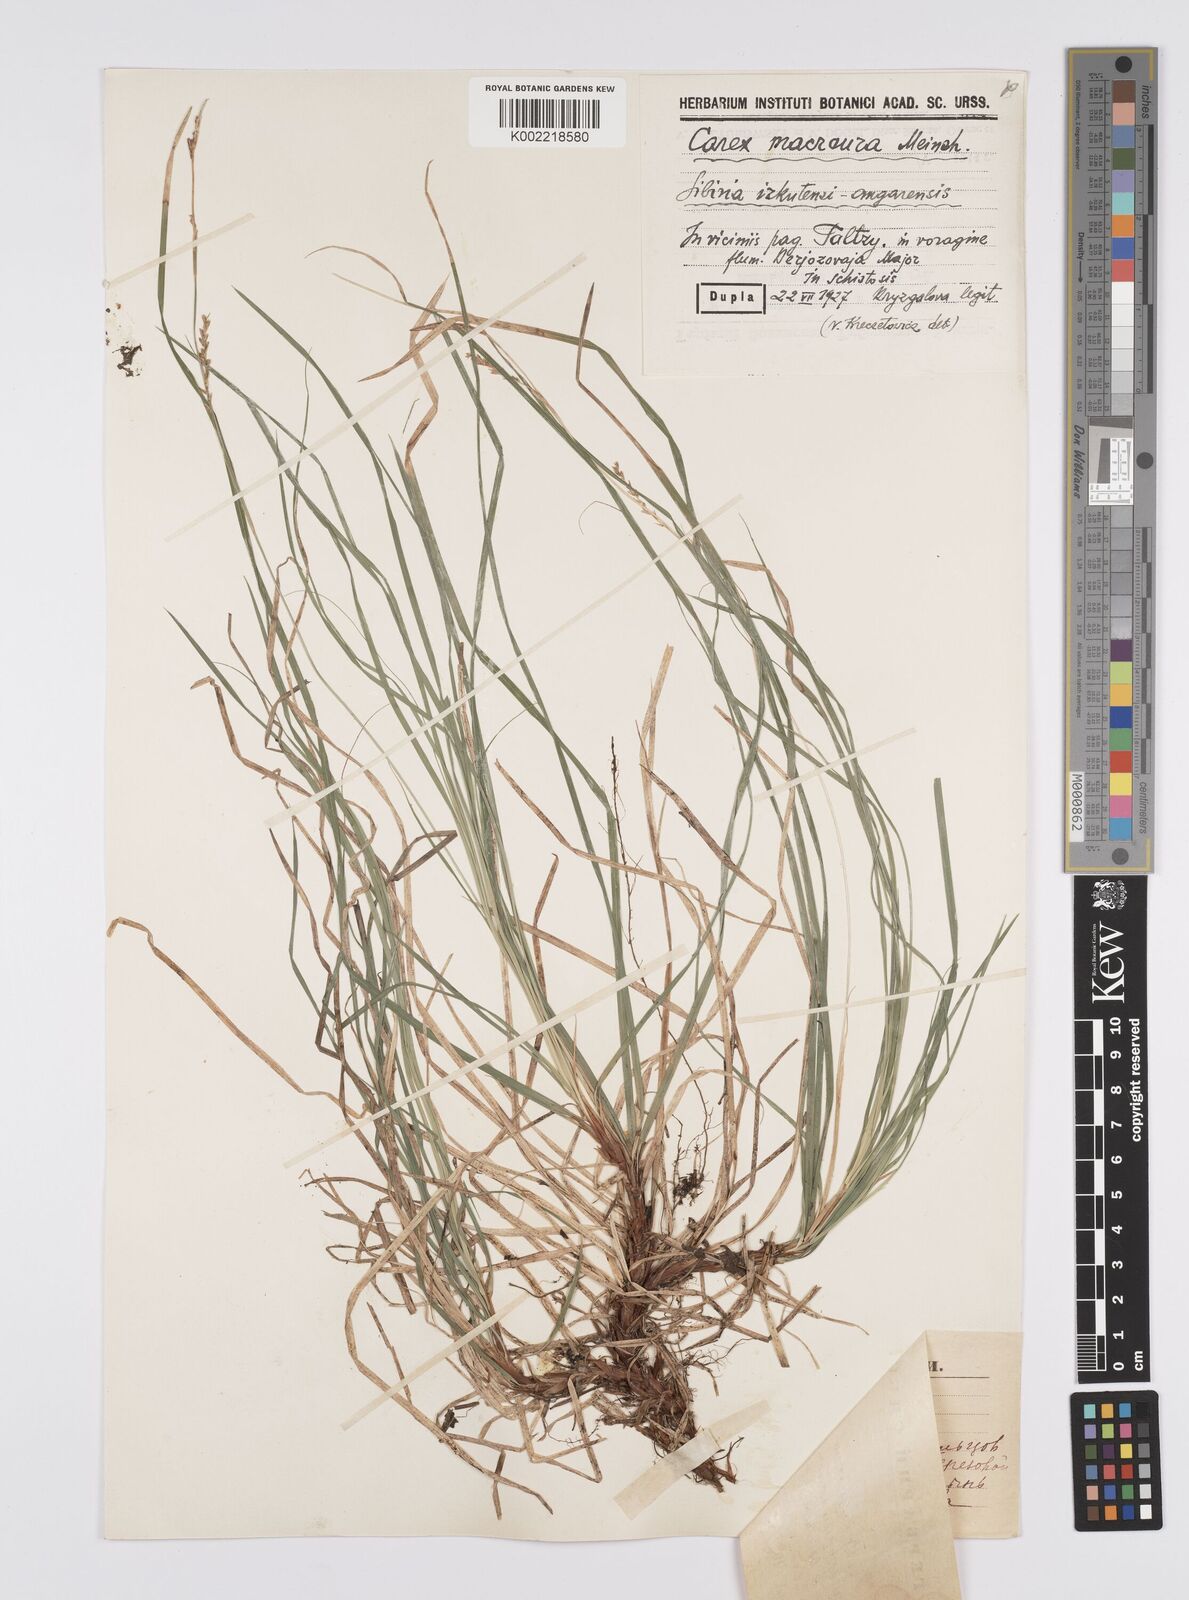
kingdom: Plantae
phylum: Tracheophyta
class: Liliopsida
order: Poales
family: Cyperaceae
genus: Carex
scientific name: Carex pediformis
